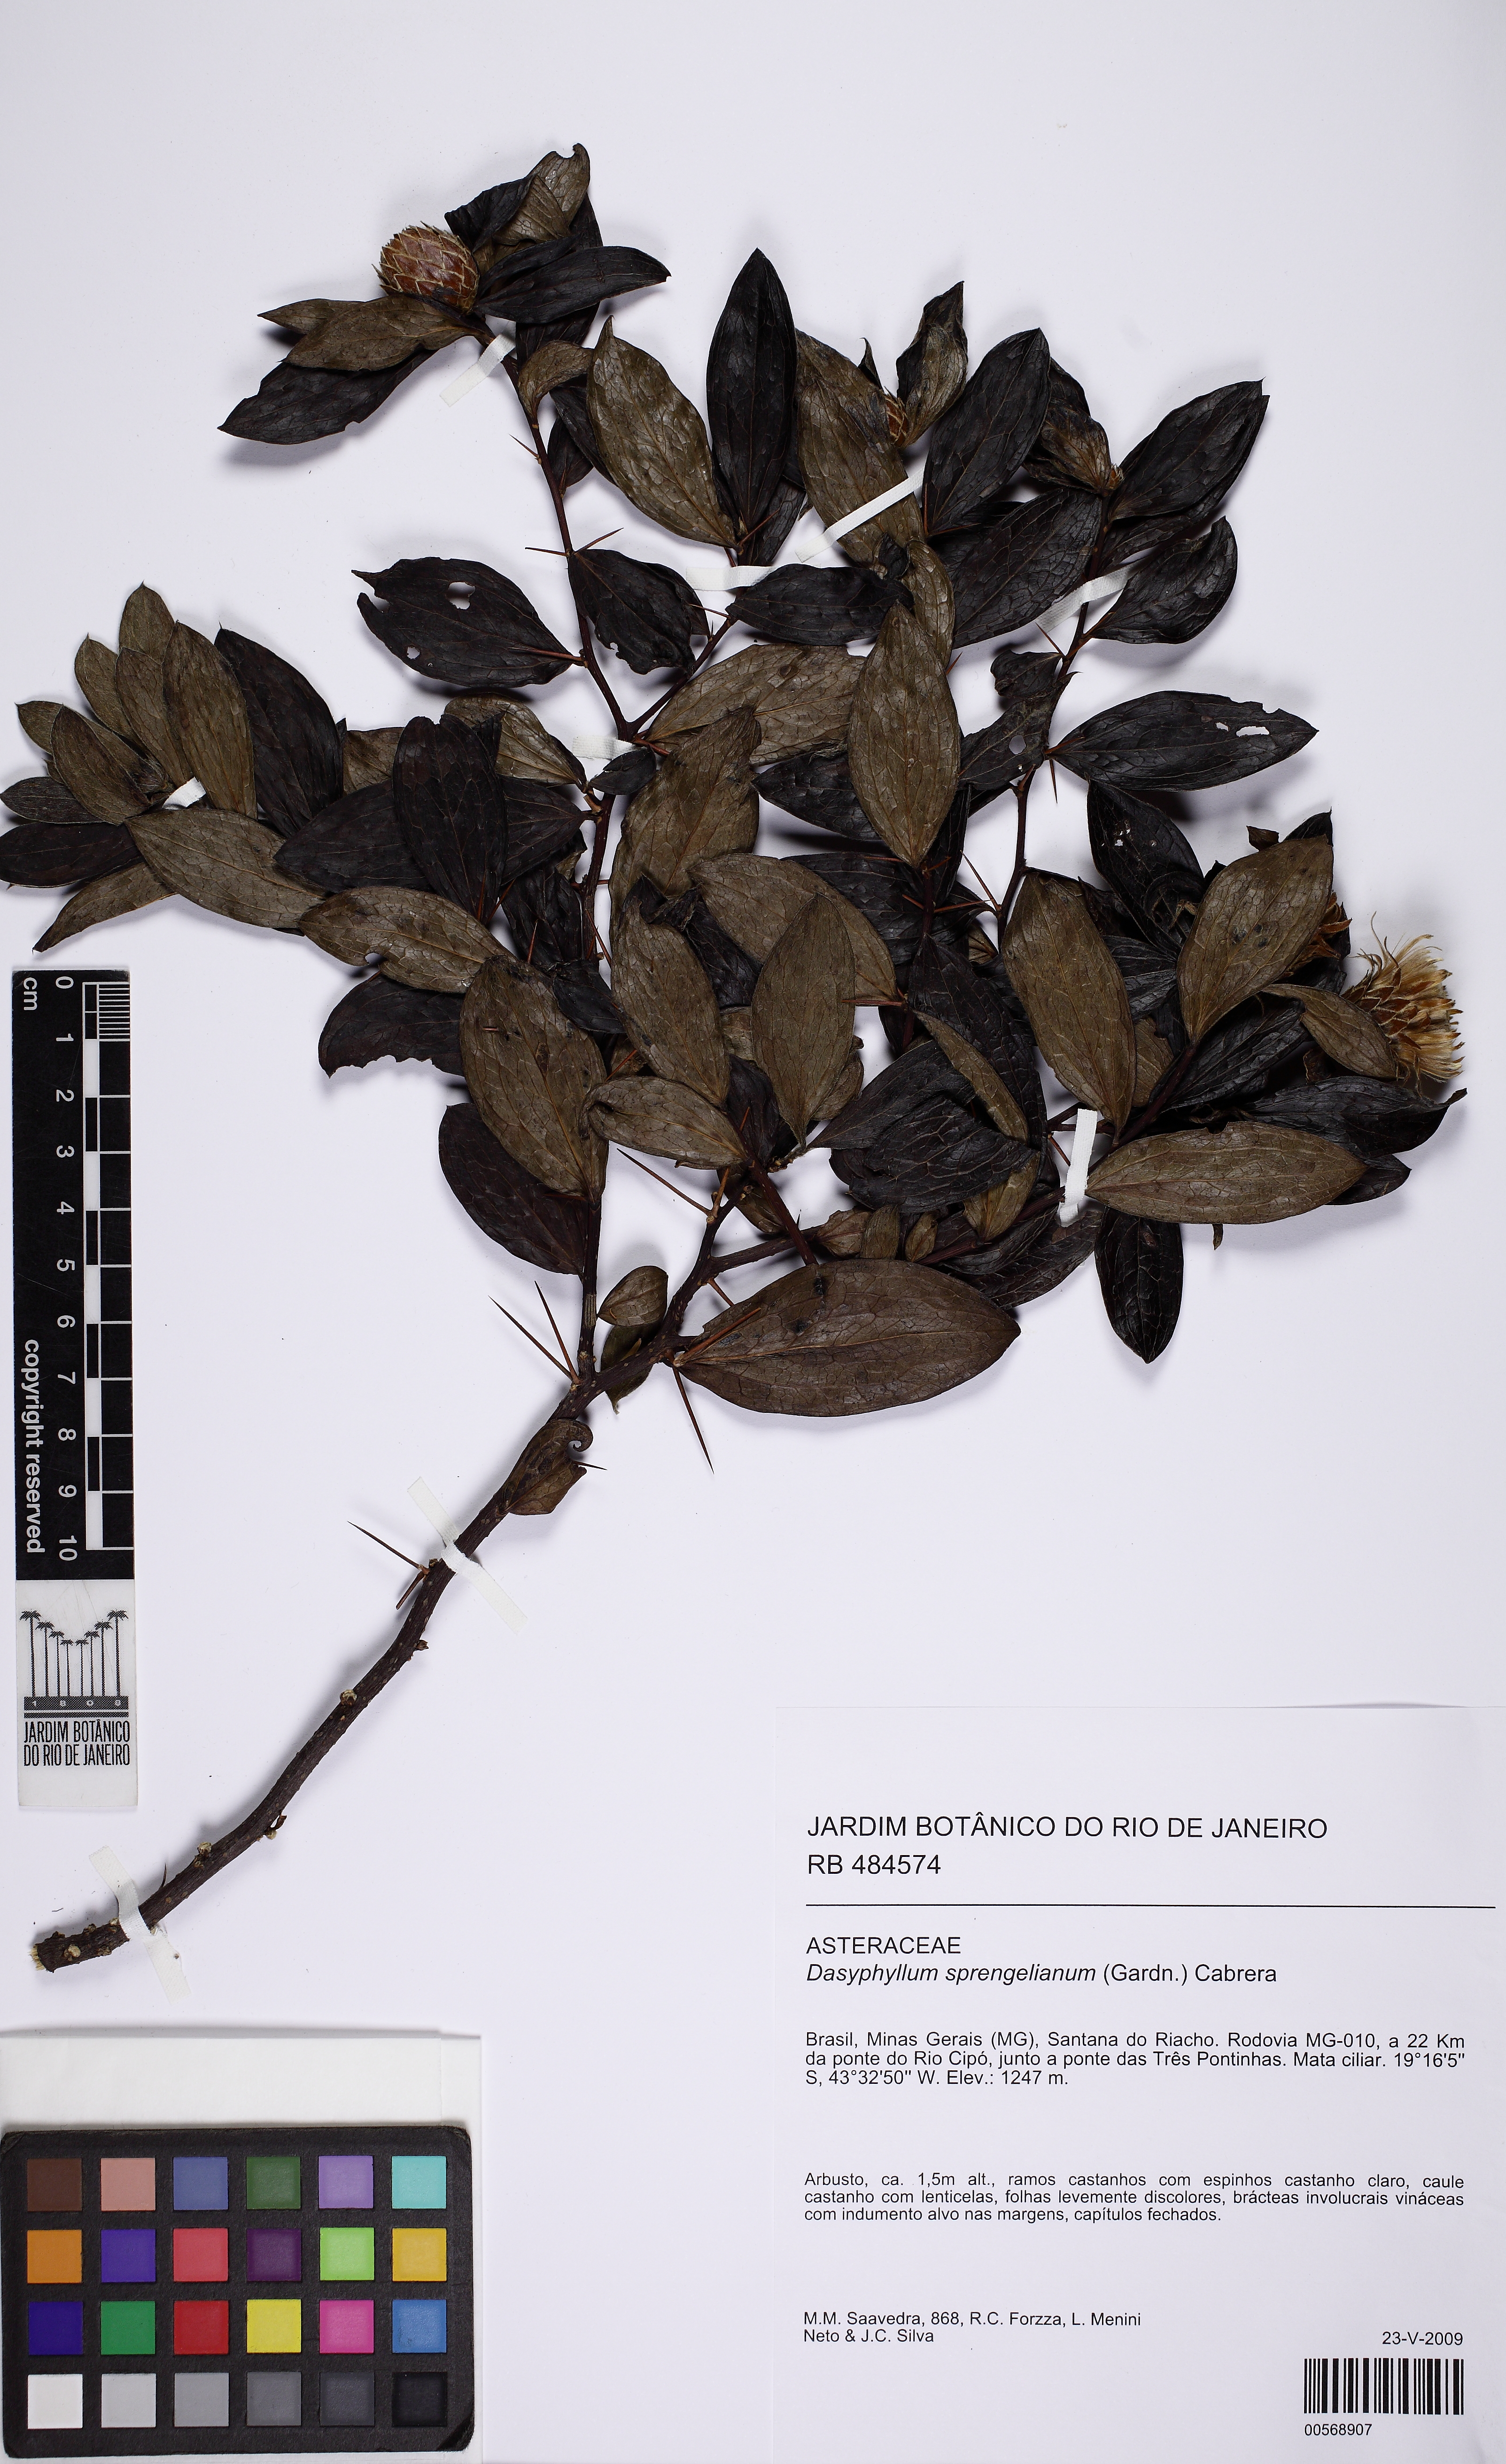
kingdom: Plantae
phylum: Tracheophyta
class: Magnoliopsida
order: Asterales
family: Asteraceae
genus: Dasyphyllum
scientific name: Dasyphyllum sprengelianum
